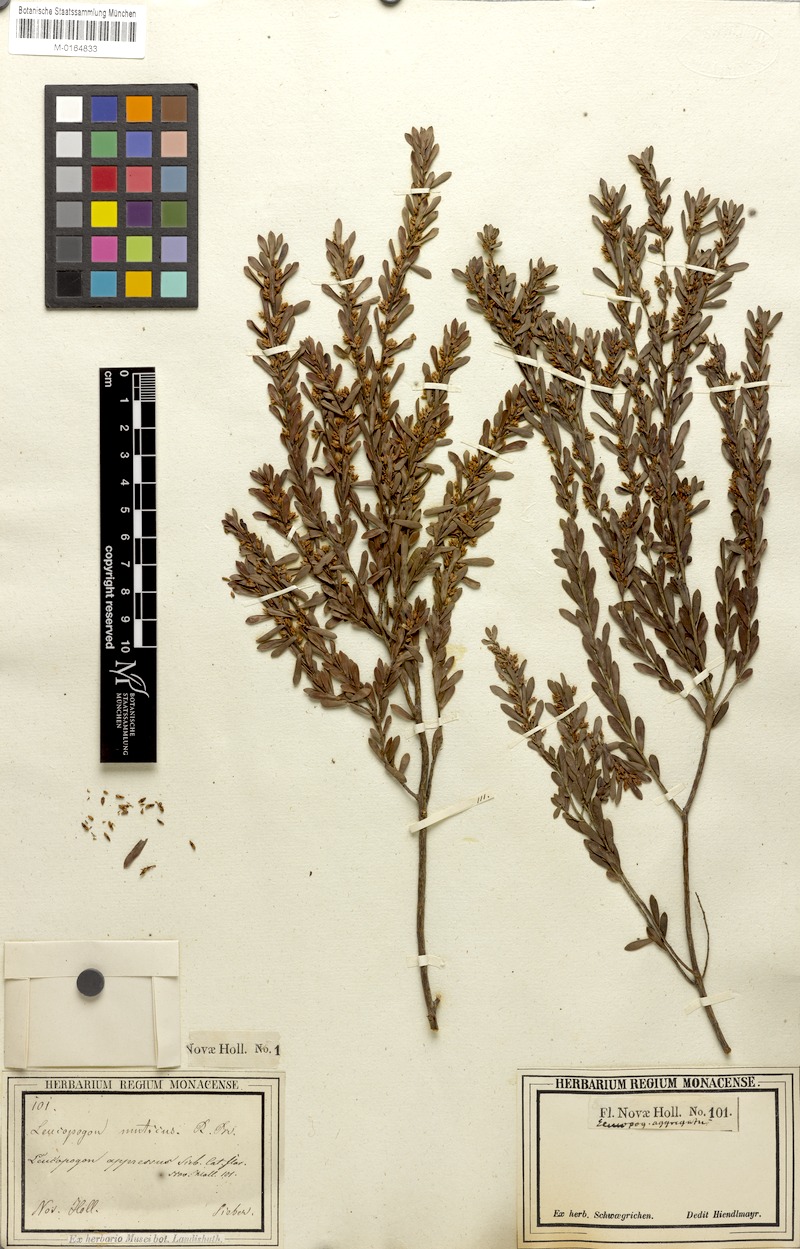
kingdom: Plantae
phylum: Tracheophyta
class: Magnoliopsida
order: Ericales
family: Ericaceae
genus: Styphelia
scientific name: Styphelia mutica
